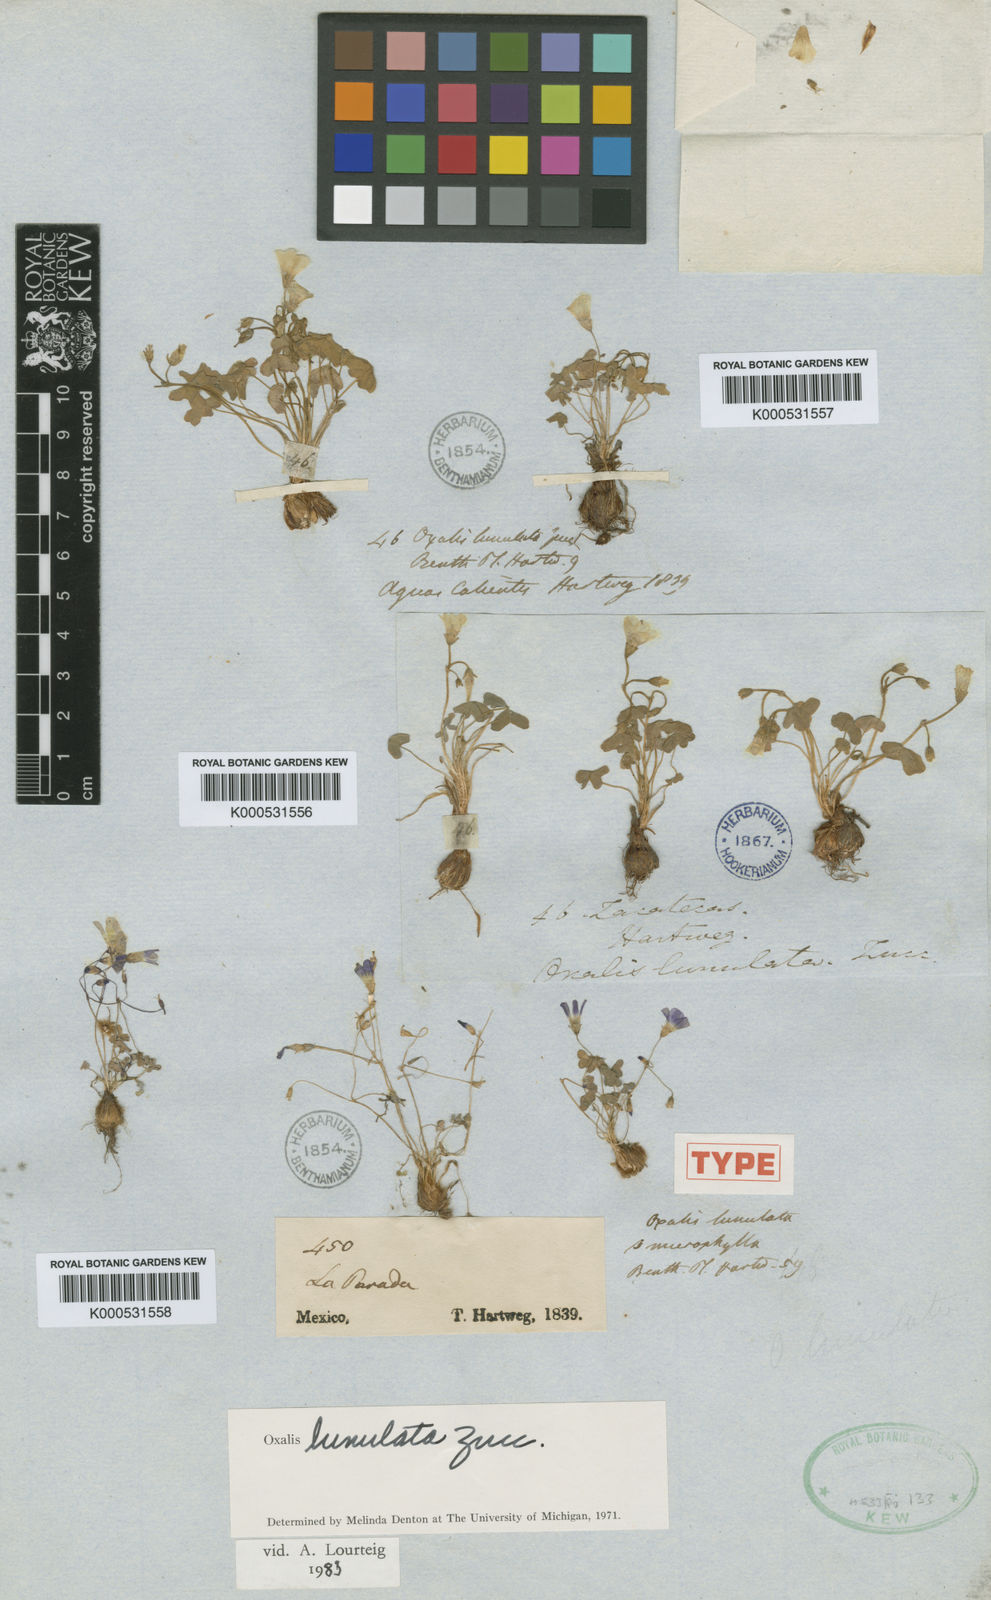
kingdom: Plantae
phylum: Tracheophyta
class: Magnoliopsida
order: Oxalidales
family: Oxalidaceae
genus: Oxalis
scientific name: Oxalis lunulata
